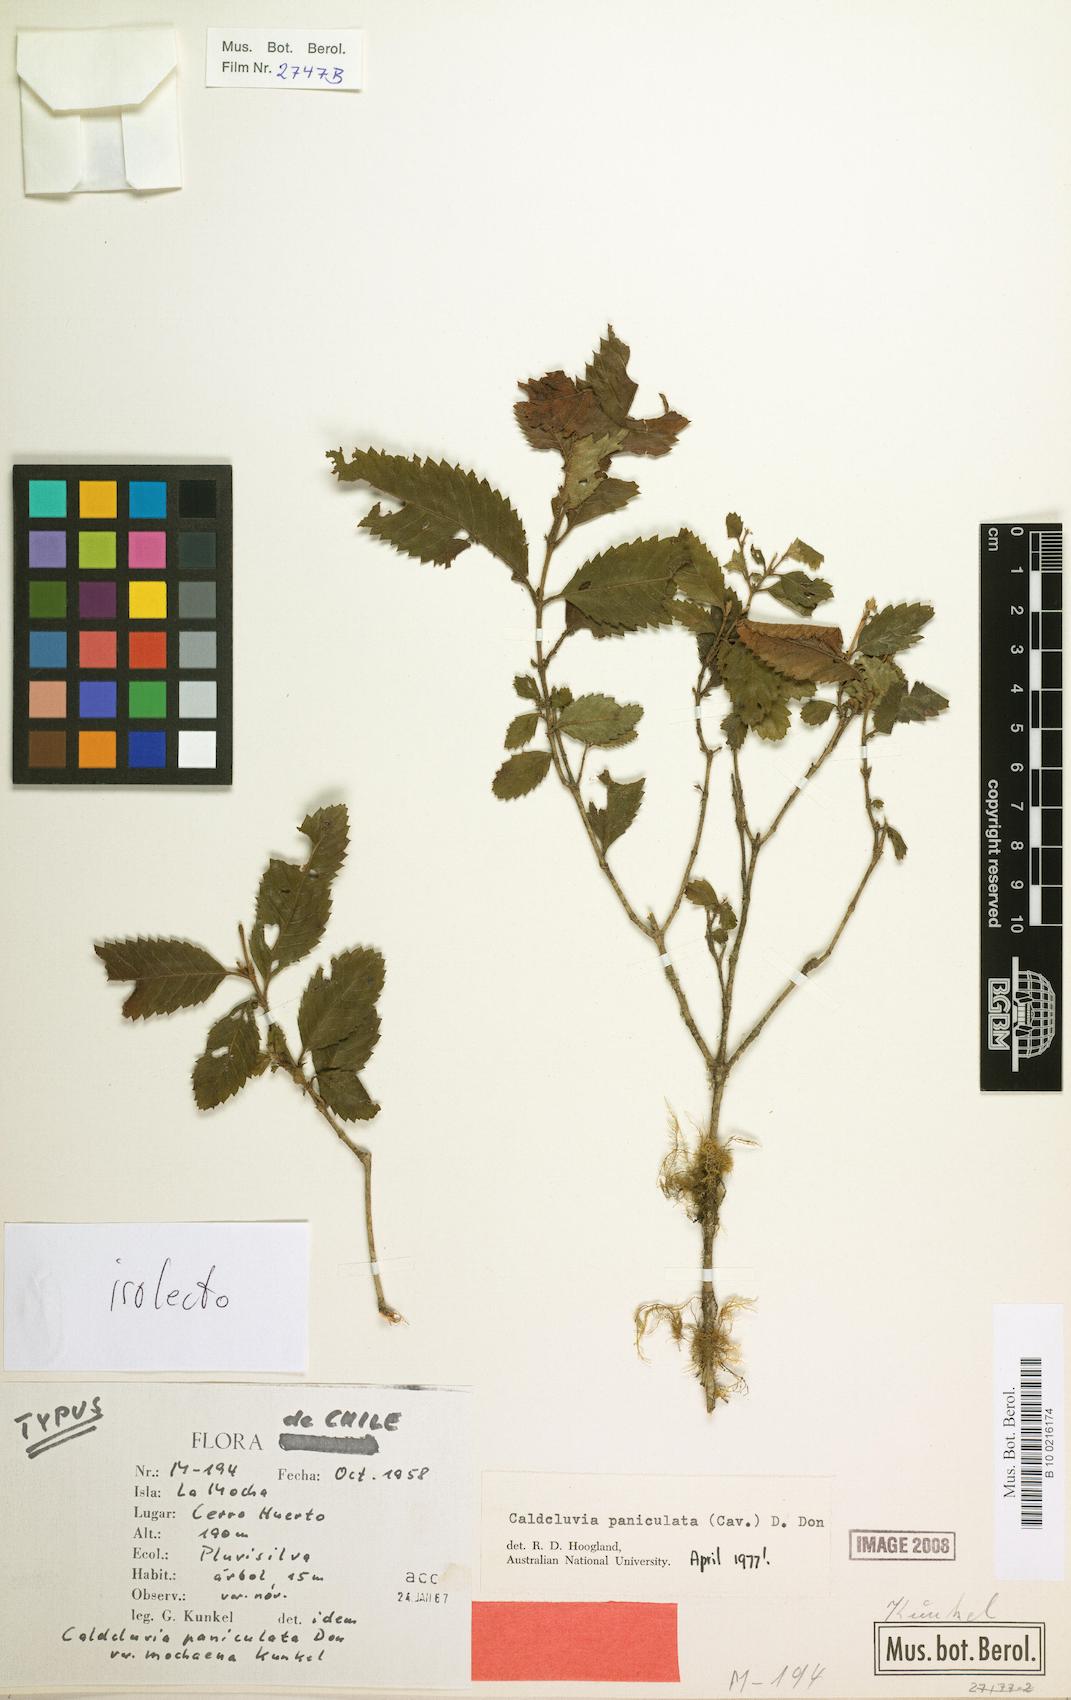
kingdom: Plantae
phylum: Tracheophyta
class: Magnoliopsida
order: Oxalidales
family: Cunoniaceae
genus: Caldcluvia
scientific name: Caldcluvia paniculata
